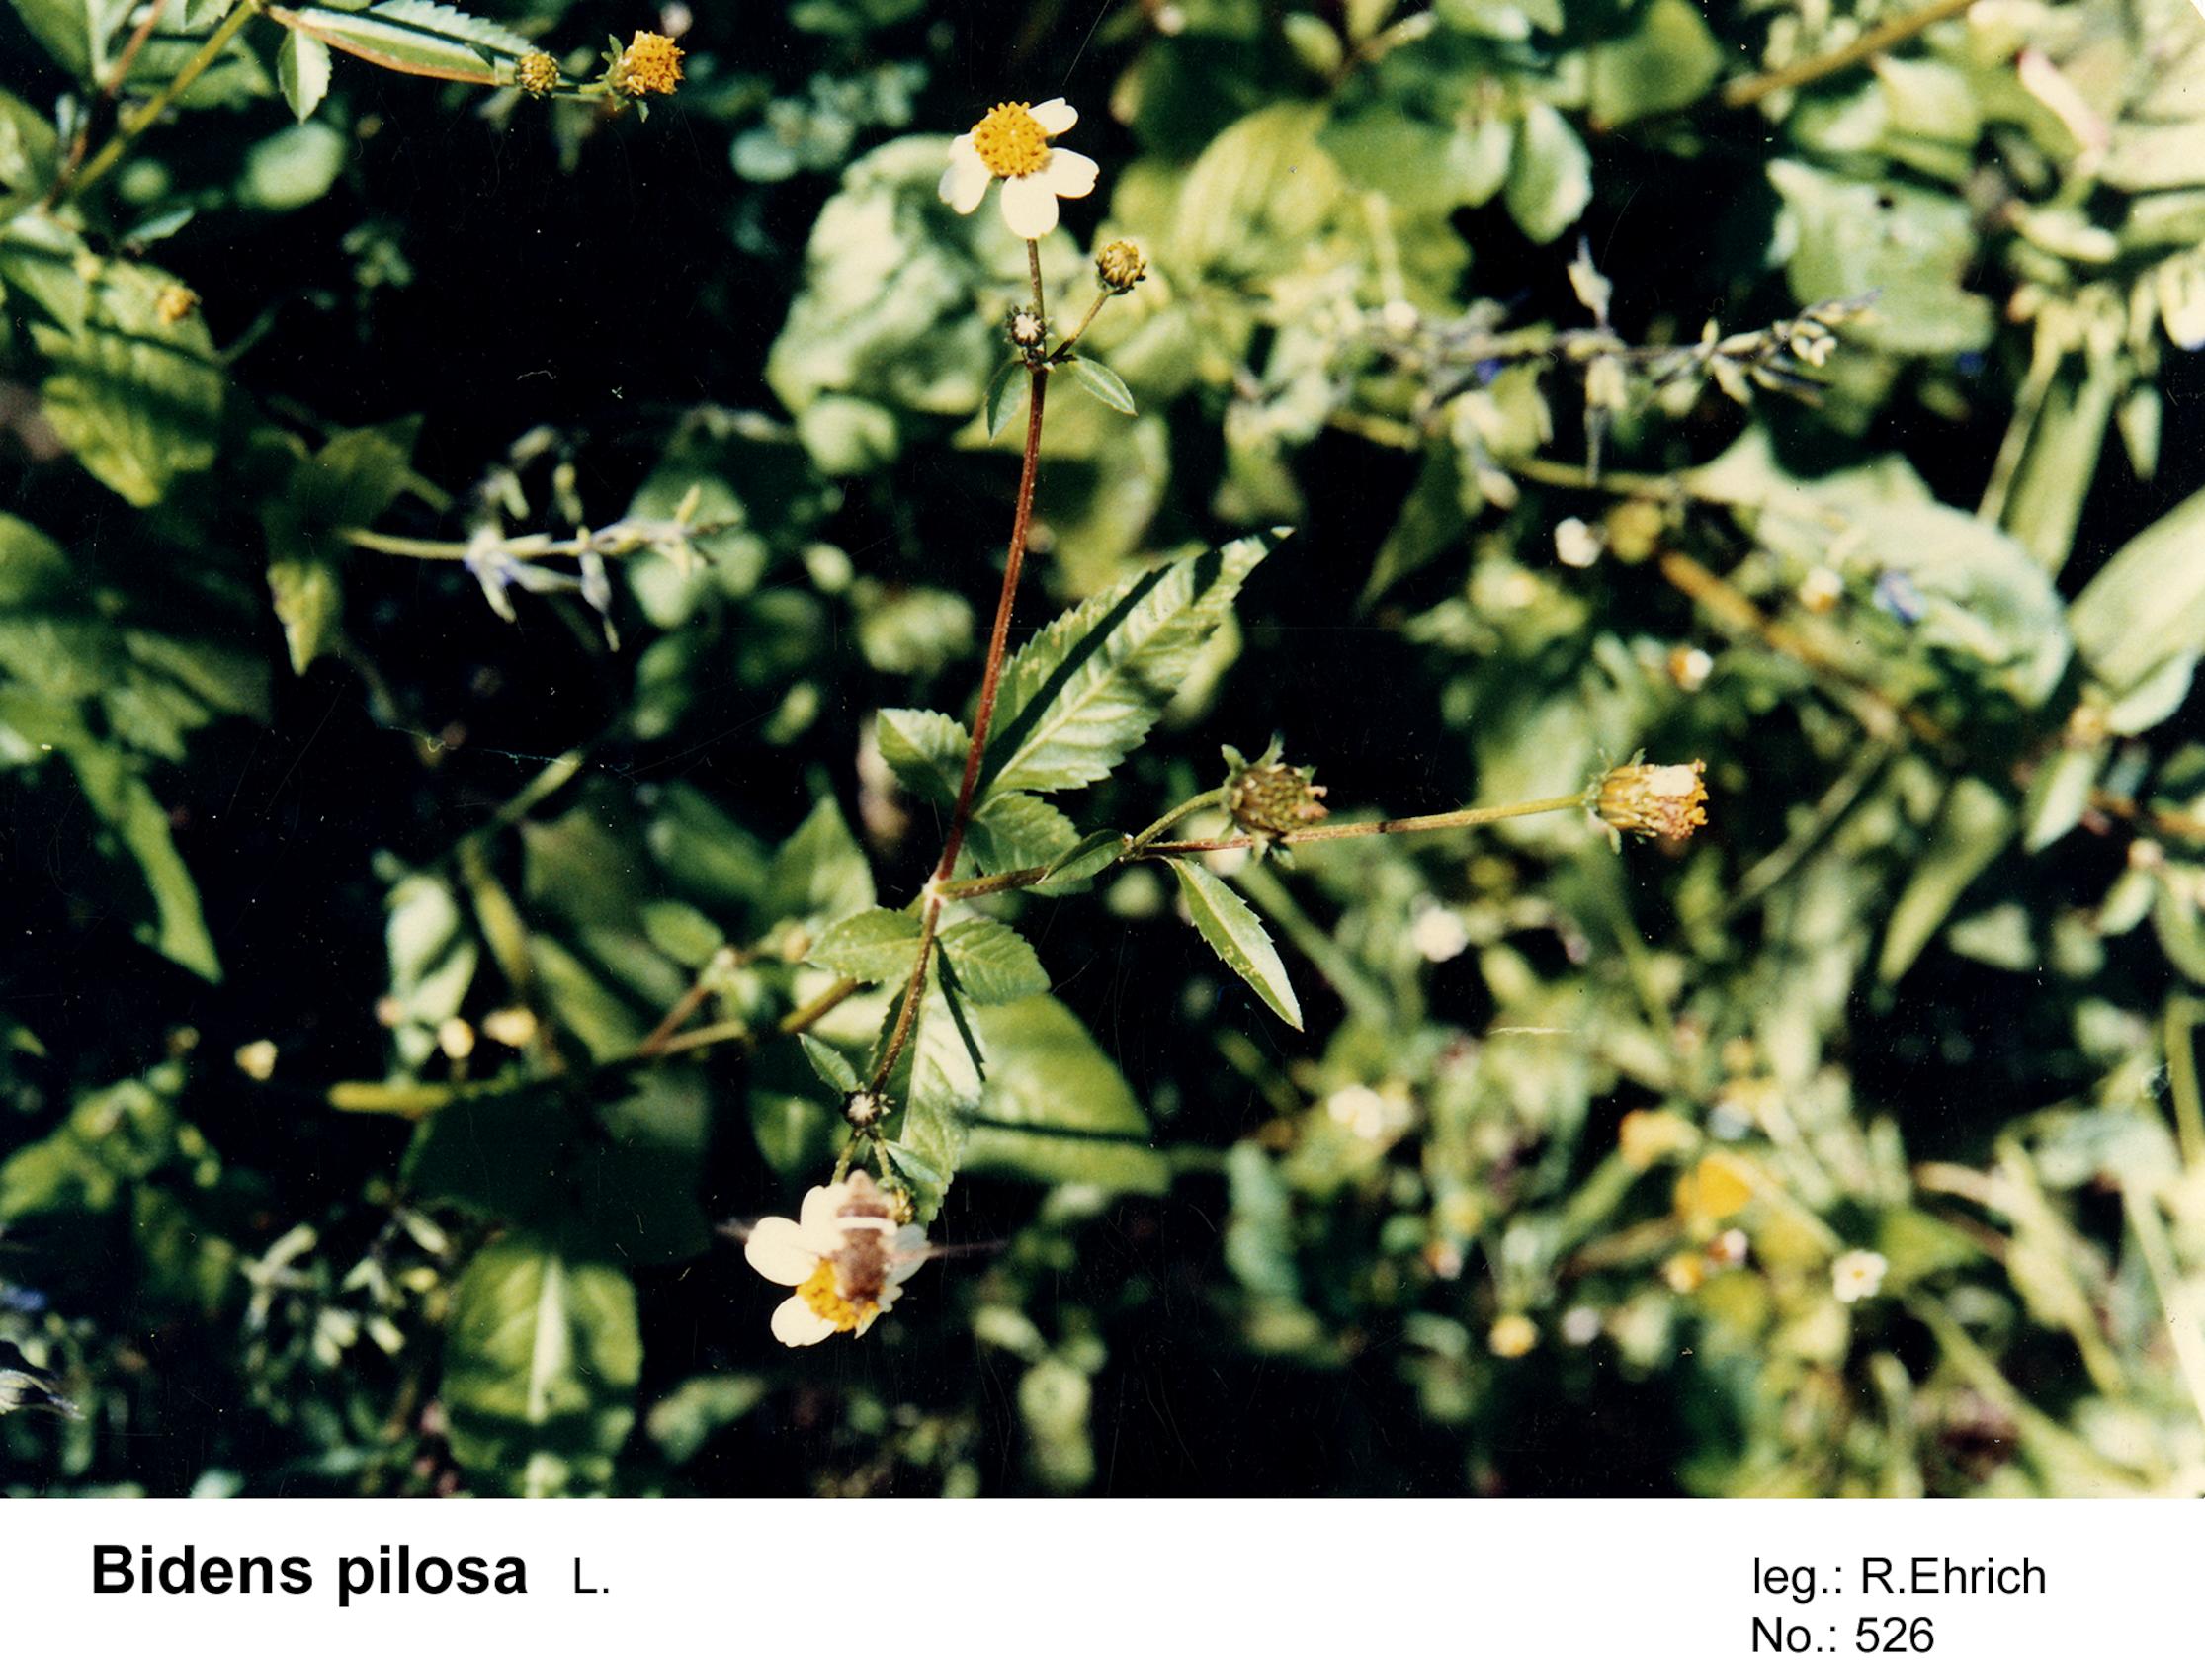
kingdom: Plantae
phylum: Tracheophyta
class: Magnoliopsida
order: Asterales
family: Asteraceae
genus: Bidens
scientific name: Bidens pilosa
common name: Black-jack
